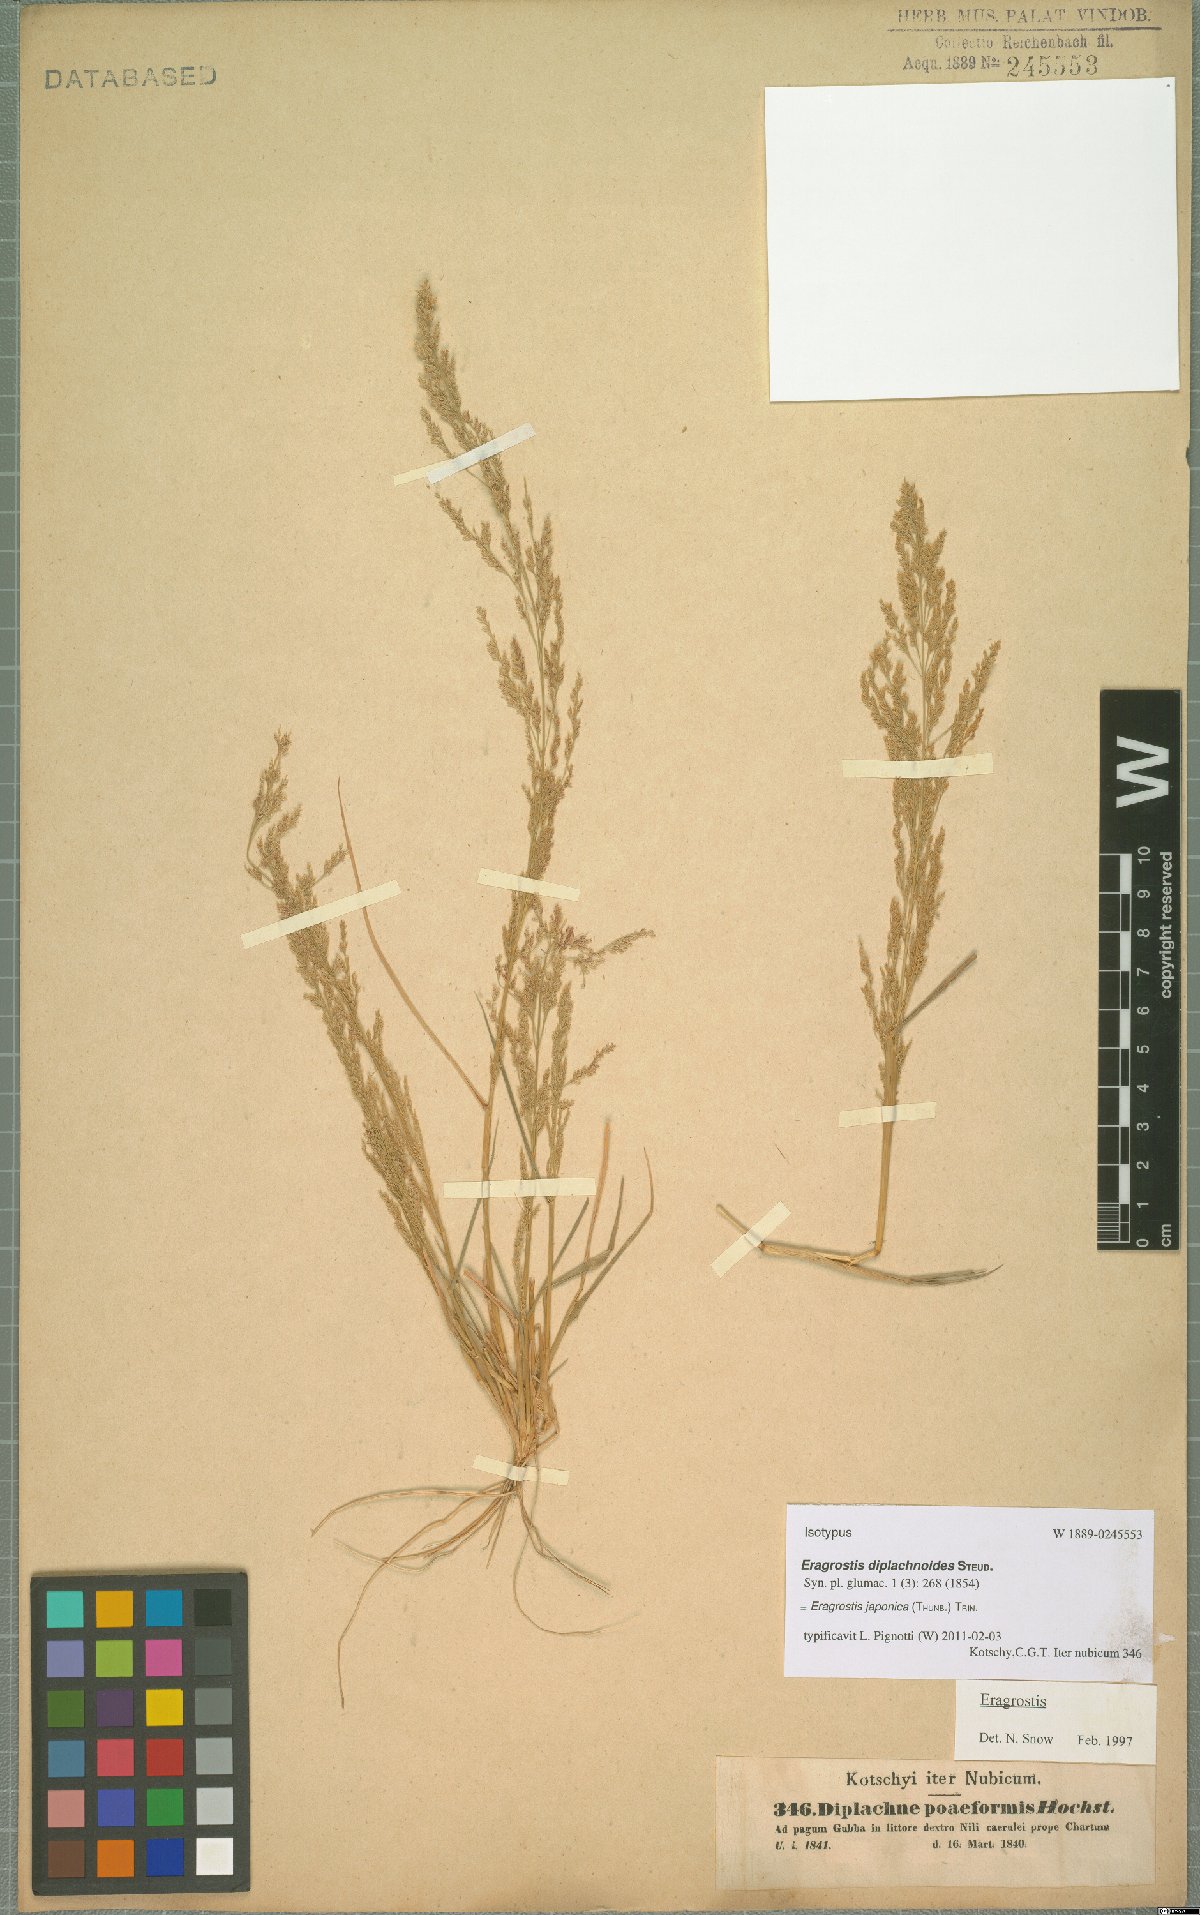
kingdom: Plantae
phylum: Tracheophyta
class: Liliopsida
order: Poales
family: Poaceae
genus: Eragrostis
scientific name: Eragrostis japonica
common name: Pond lovegrass
